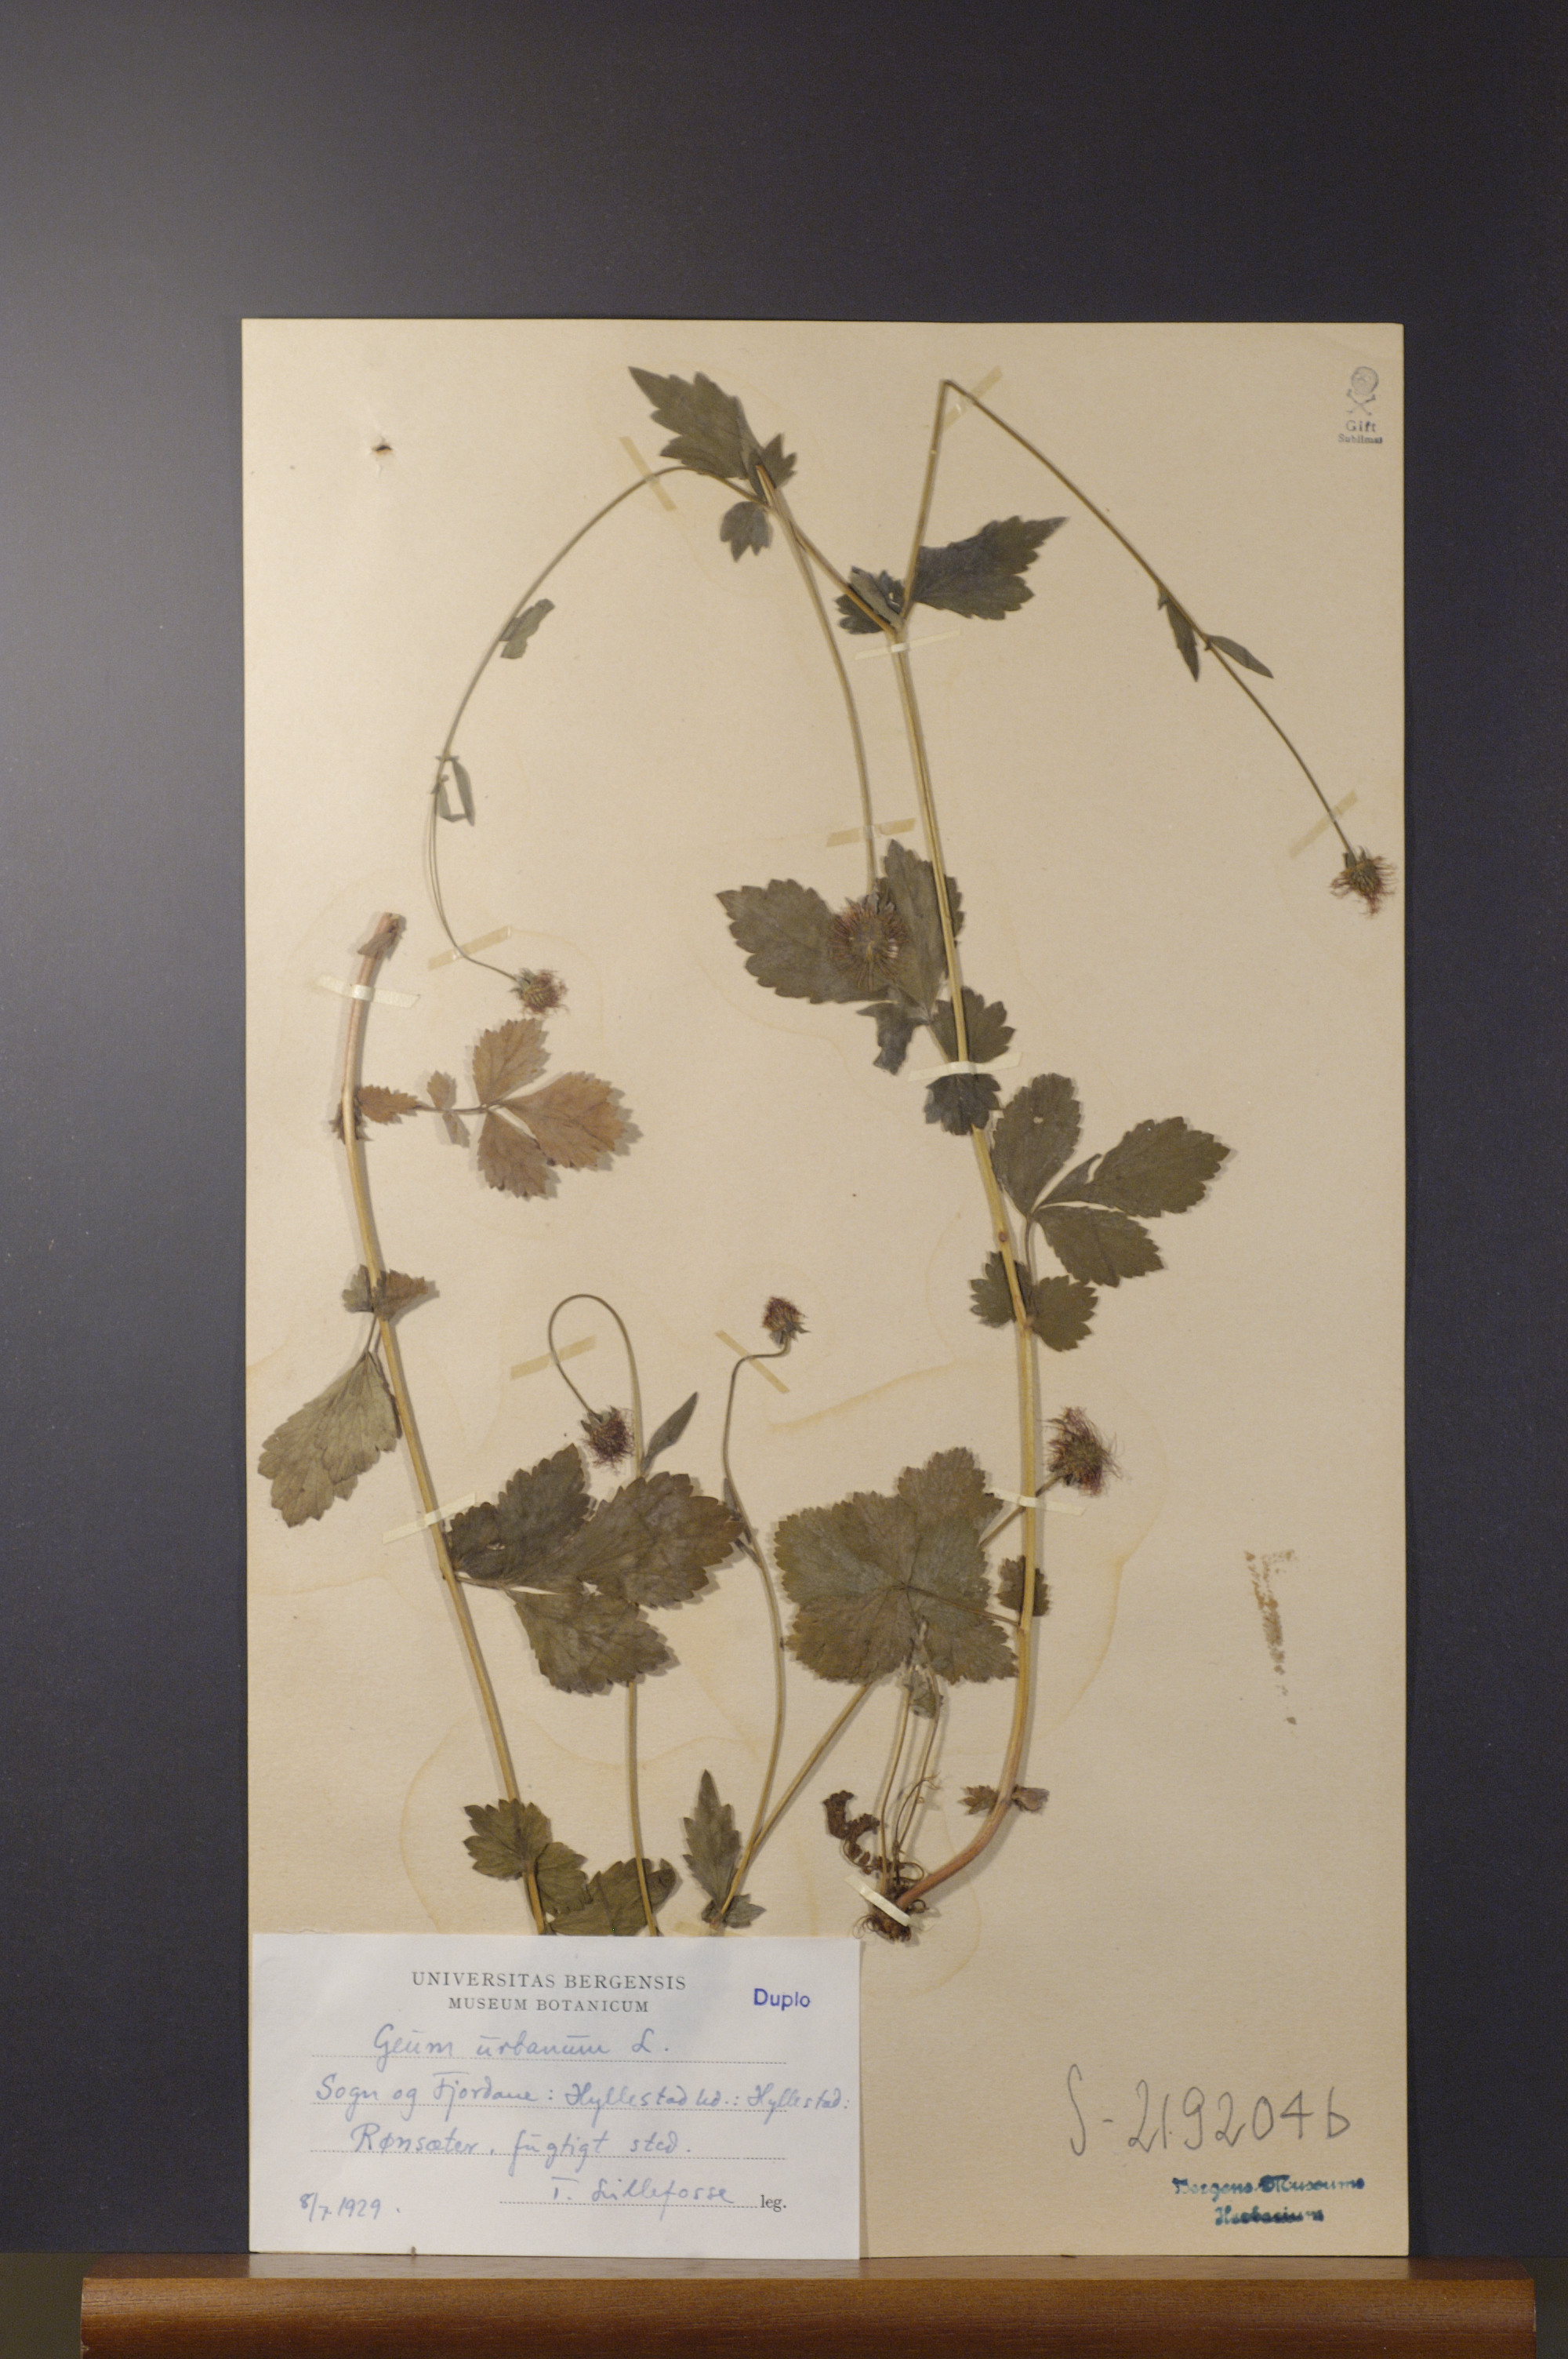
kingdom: Plantae
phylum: Tracheophyta
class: Magnoliopsida
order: Rosales
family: Rosaceae
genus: Geum
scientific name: Geum urbanum
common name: Wood avens
